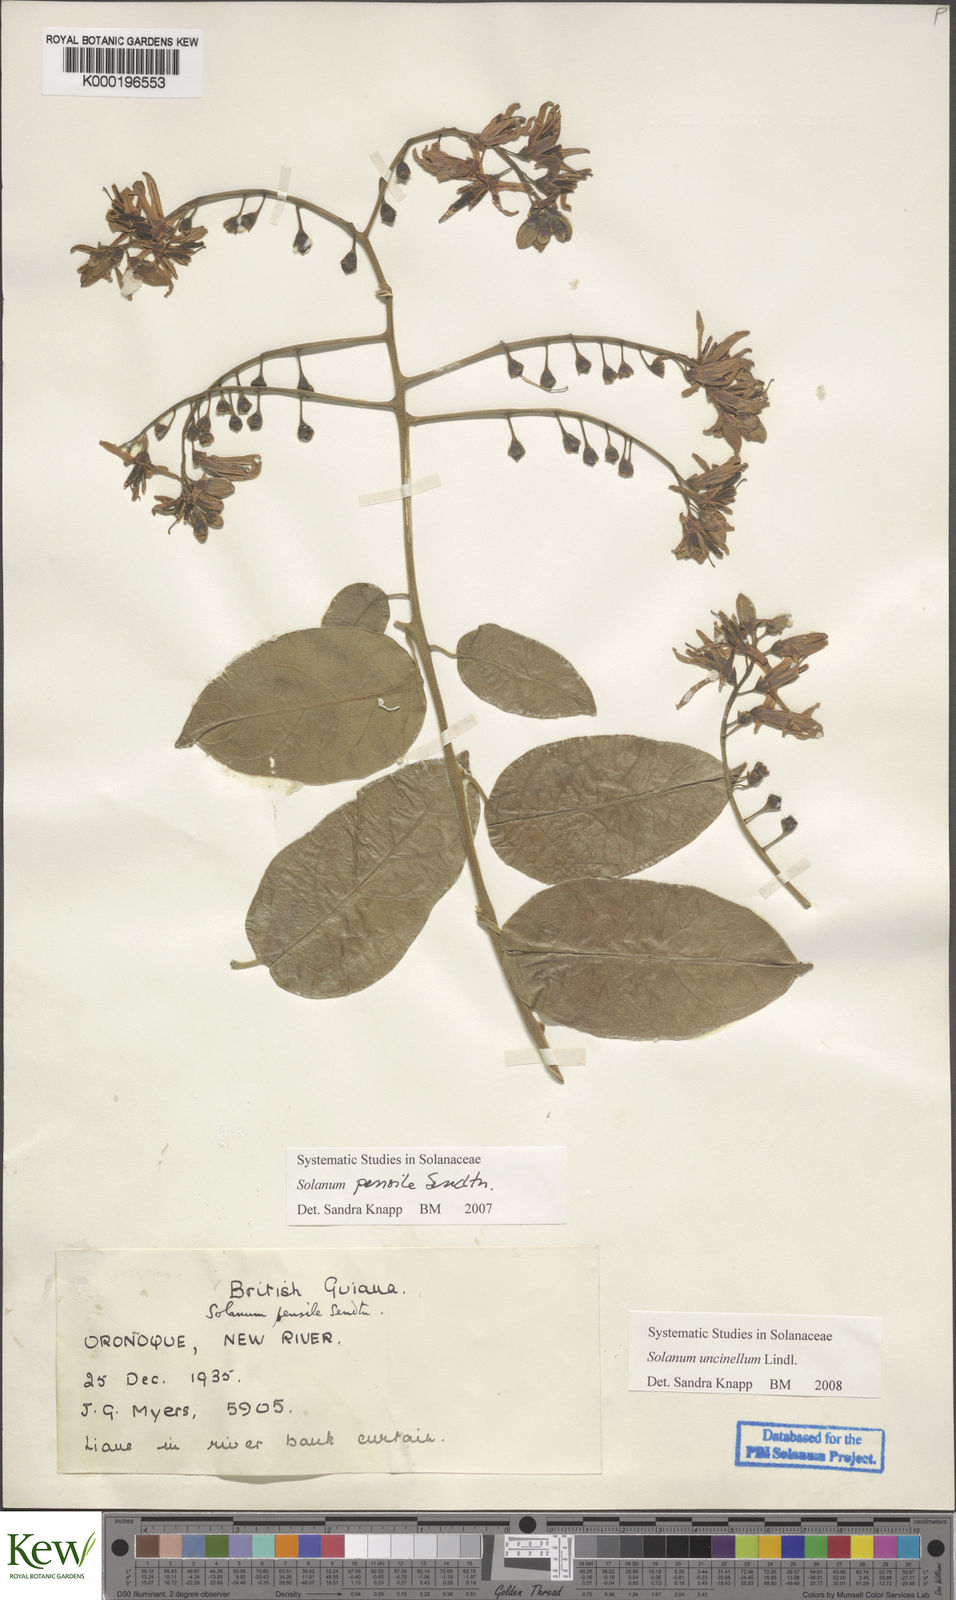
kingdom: Plantae
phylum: Tracheophyta
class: Magnoliopsida
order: Solanales
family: Solanaceae
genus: Solanum
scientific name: Solanum uncinellum
